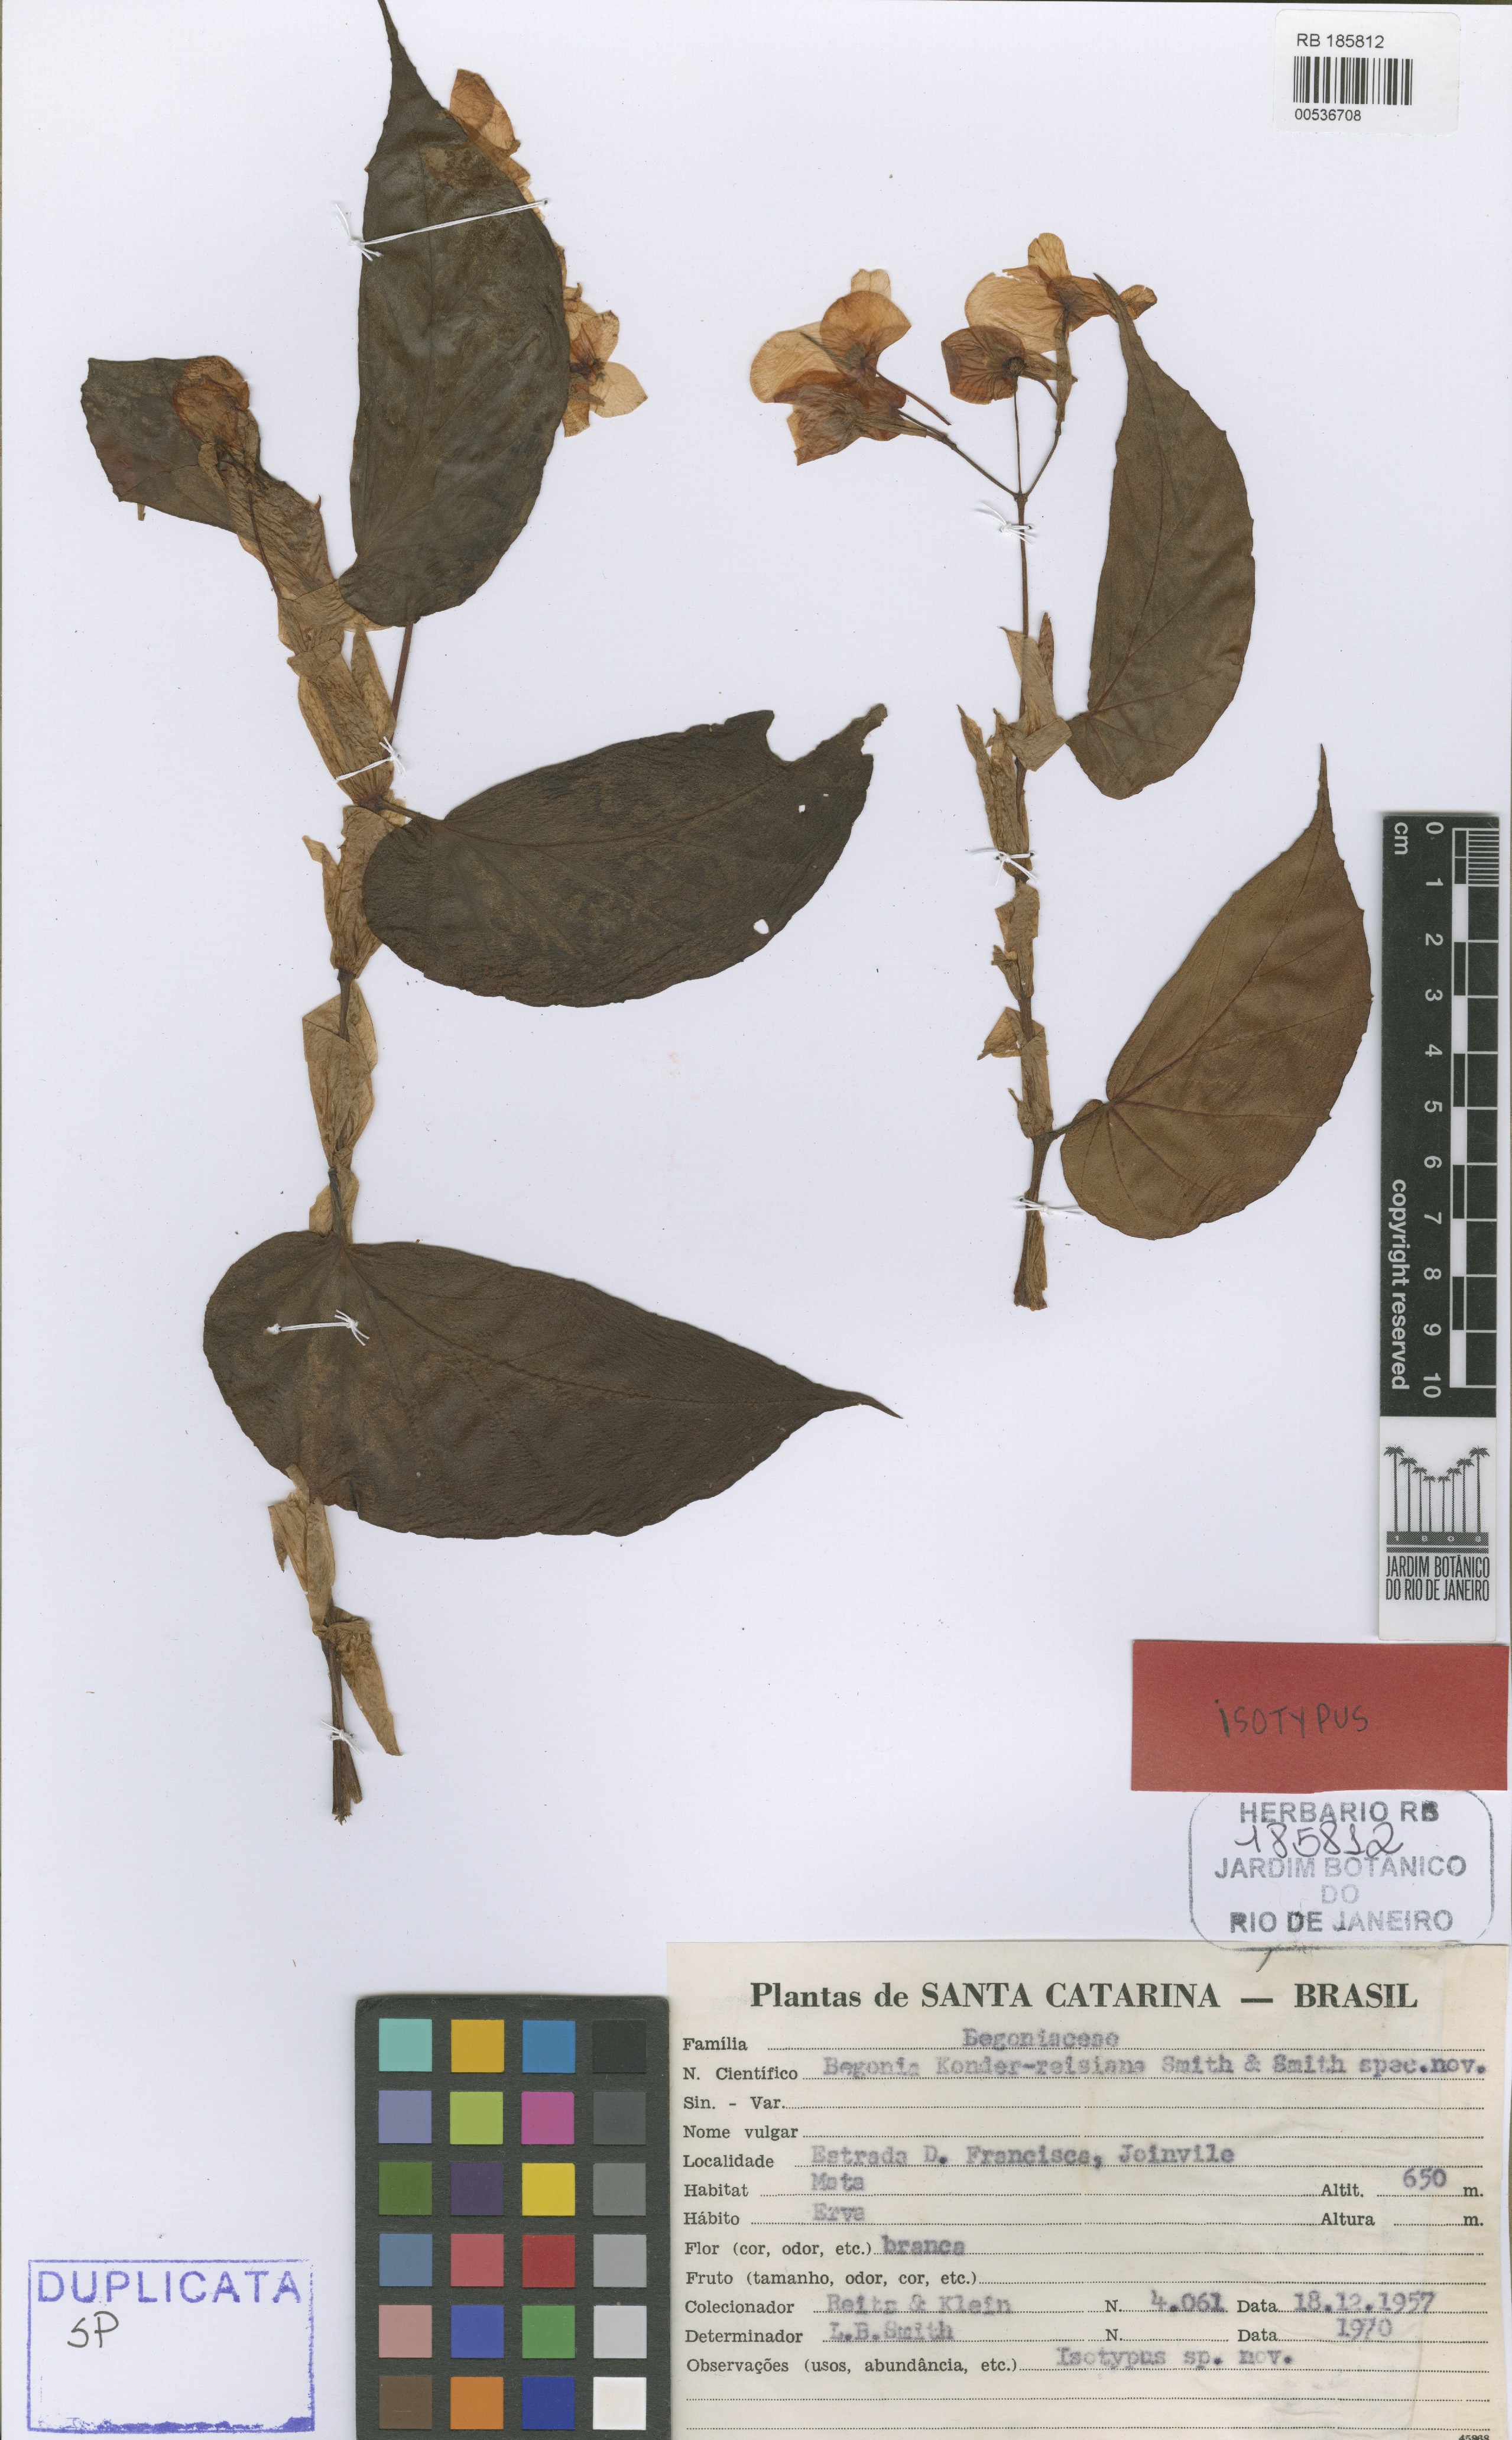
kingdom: Plantae
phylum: Tracheophyta
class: Magnoliopsida
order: Cucurbitales
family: Begoniaceae
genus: Begonia
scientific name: Begonia konderreisiana
